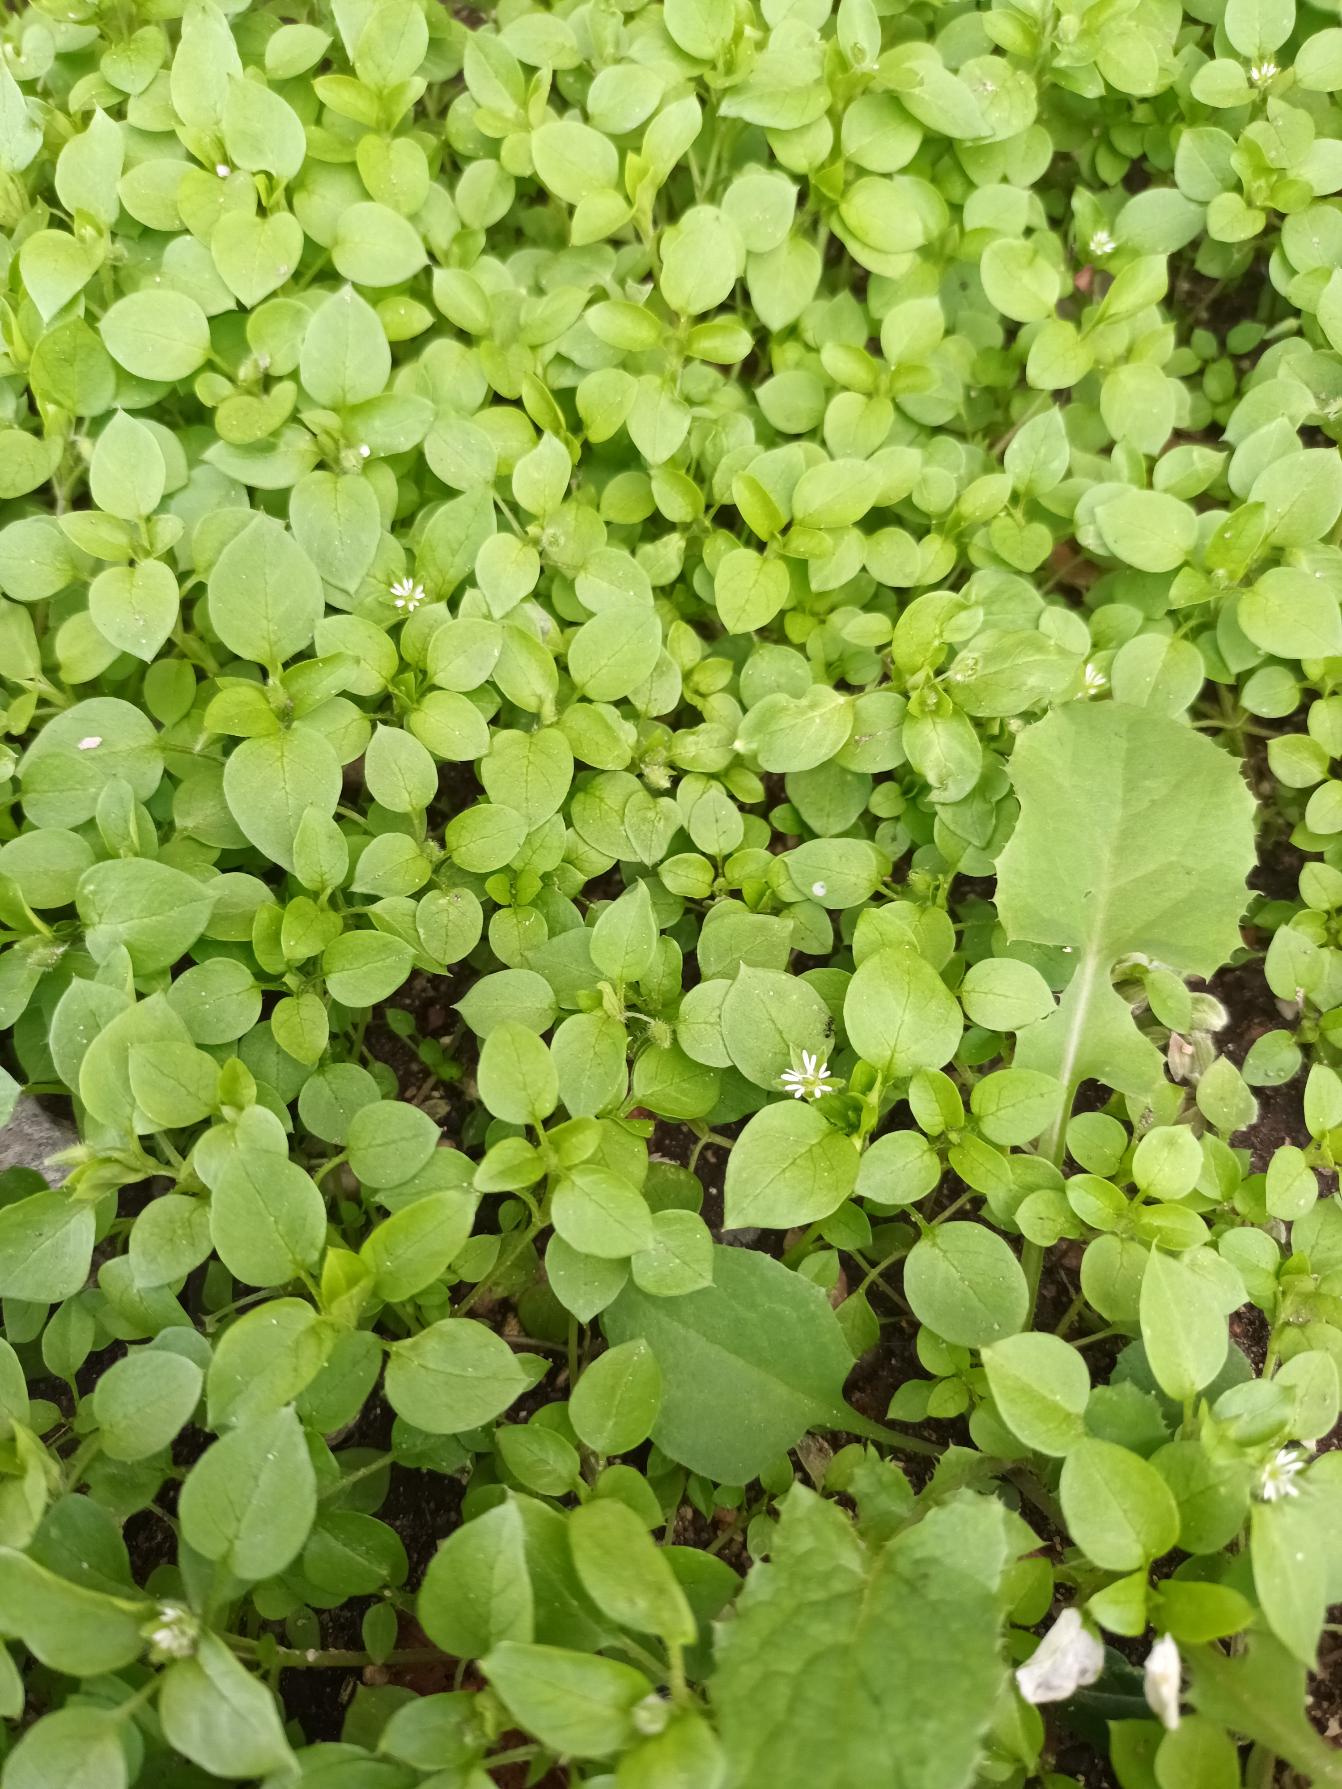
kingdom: Plantae
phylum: Tracheophyta
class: Magnoliopsida
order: Caryophyllales
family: Caryophyllaceae
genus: Stellaria
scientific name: Stellaria media
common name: Almindelig fuglegræs
